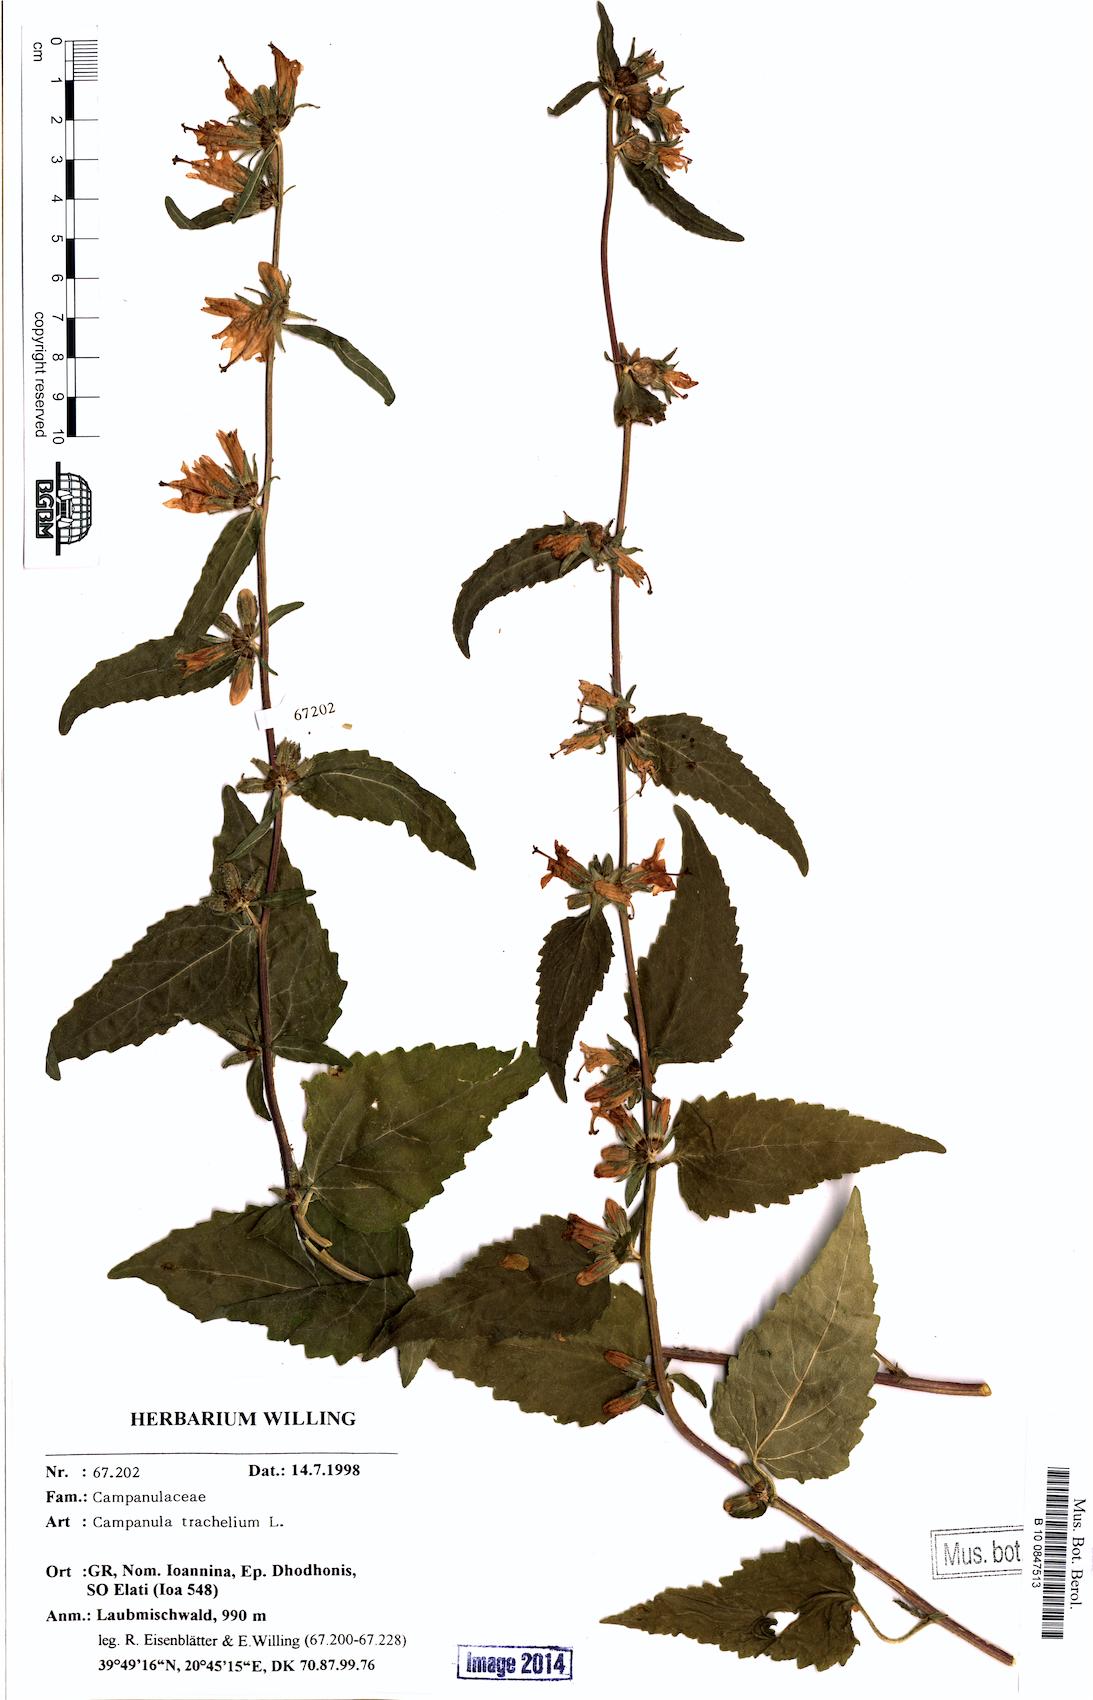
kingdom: Plantae
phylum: Tracheophyta
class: Magnoliopsida
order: Asterales
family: Campanulaceae
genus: Campanula
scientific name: Campanula trachelium
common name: Nettle-leaved bellflower
